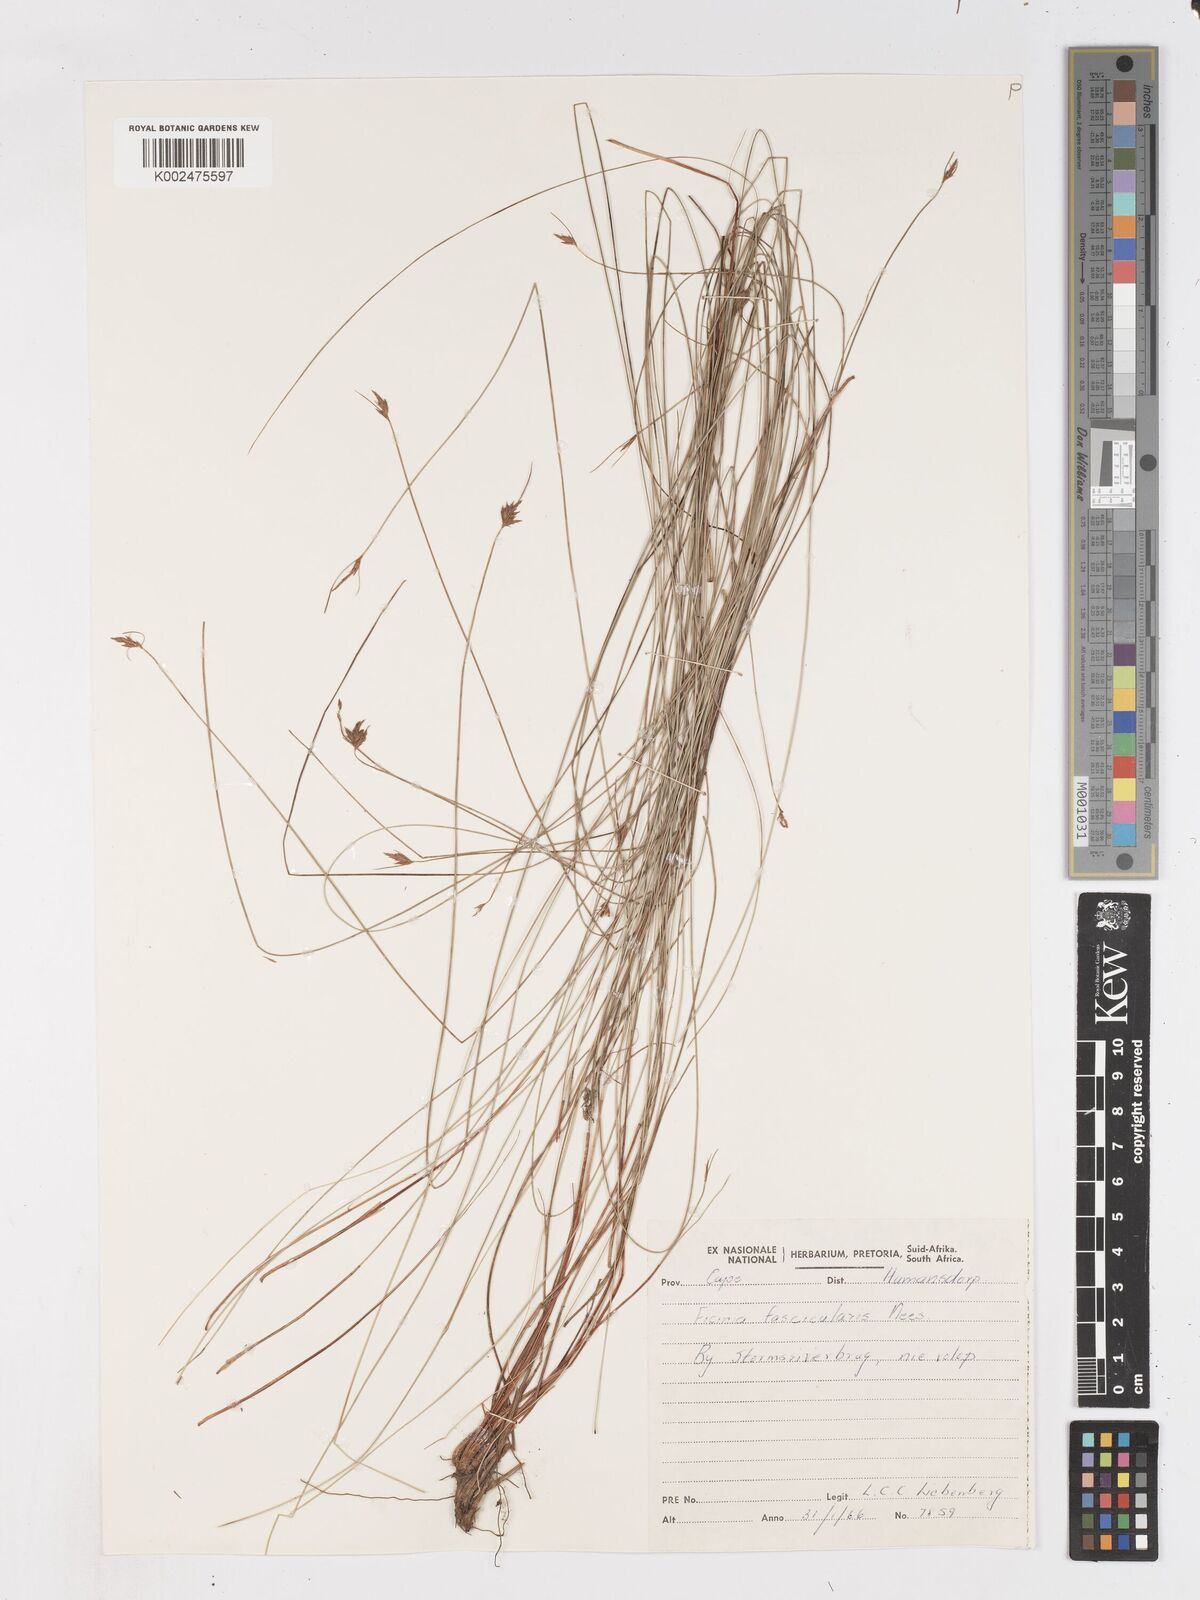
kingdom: Plantae
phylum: Tracheophyta
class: Liliopsida
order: Poales
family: Cyperaceae
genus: Ficinia
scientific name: Ficinia fascicularis
